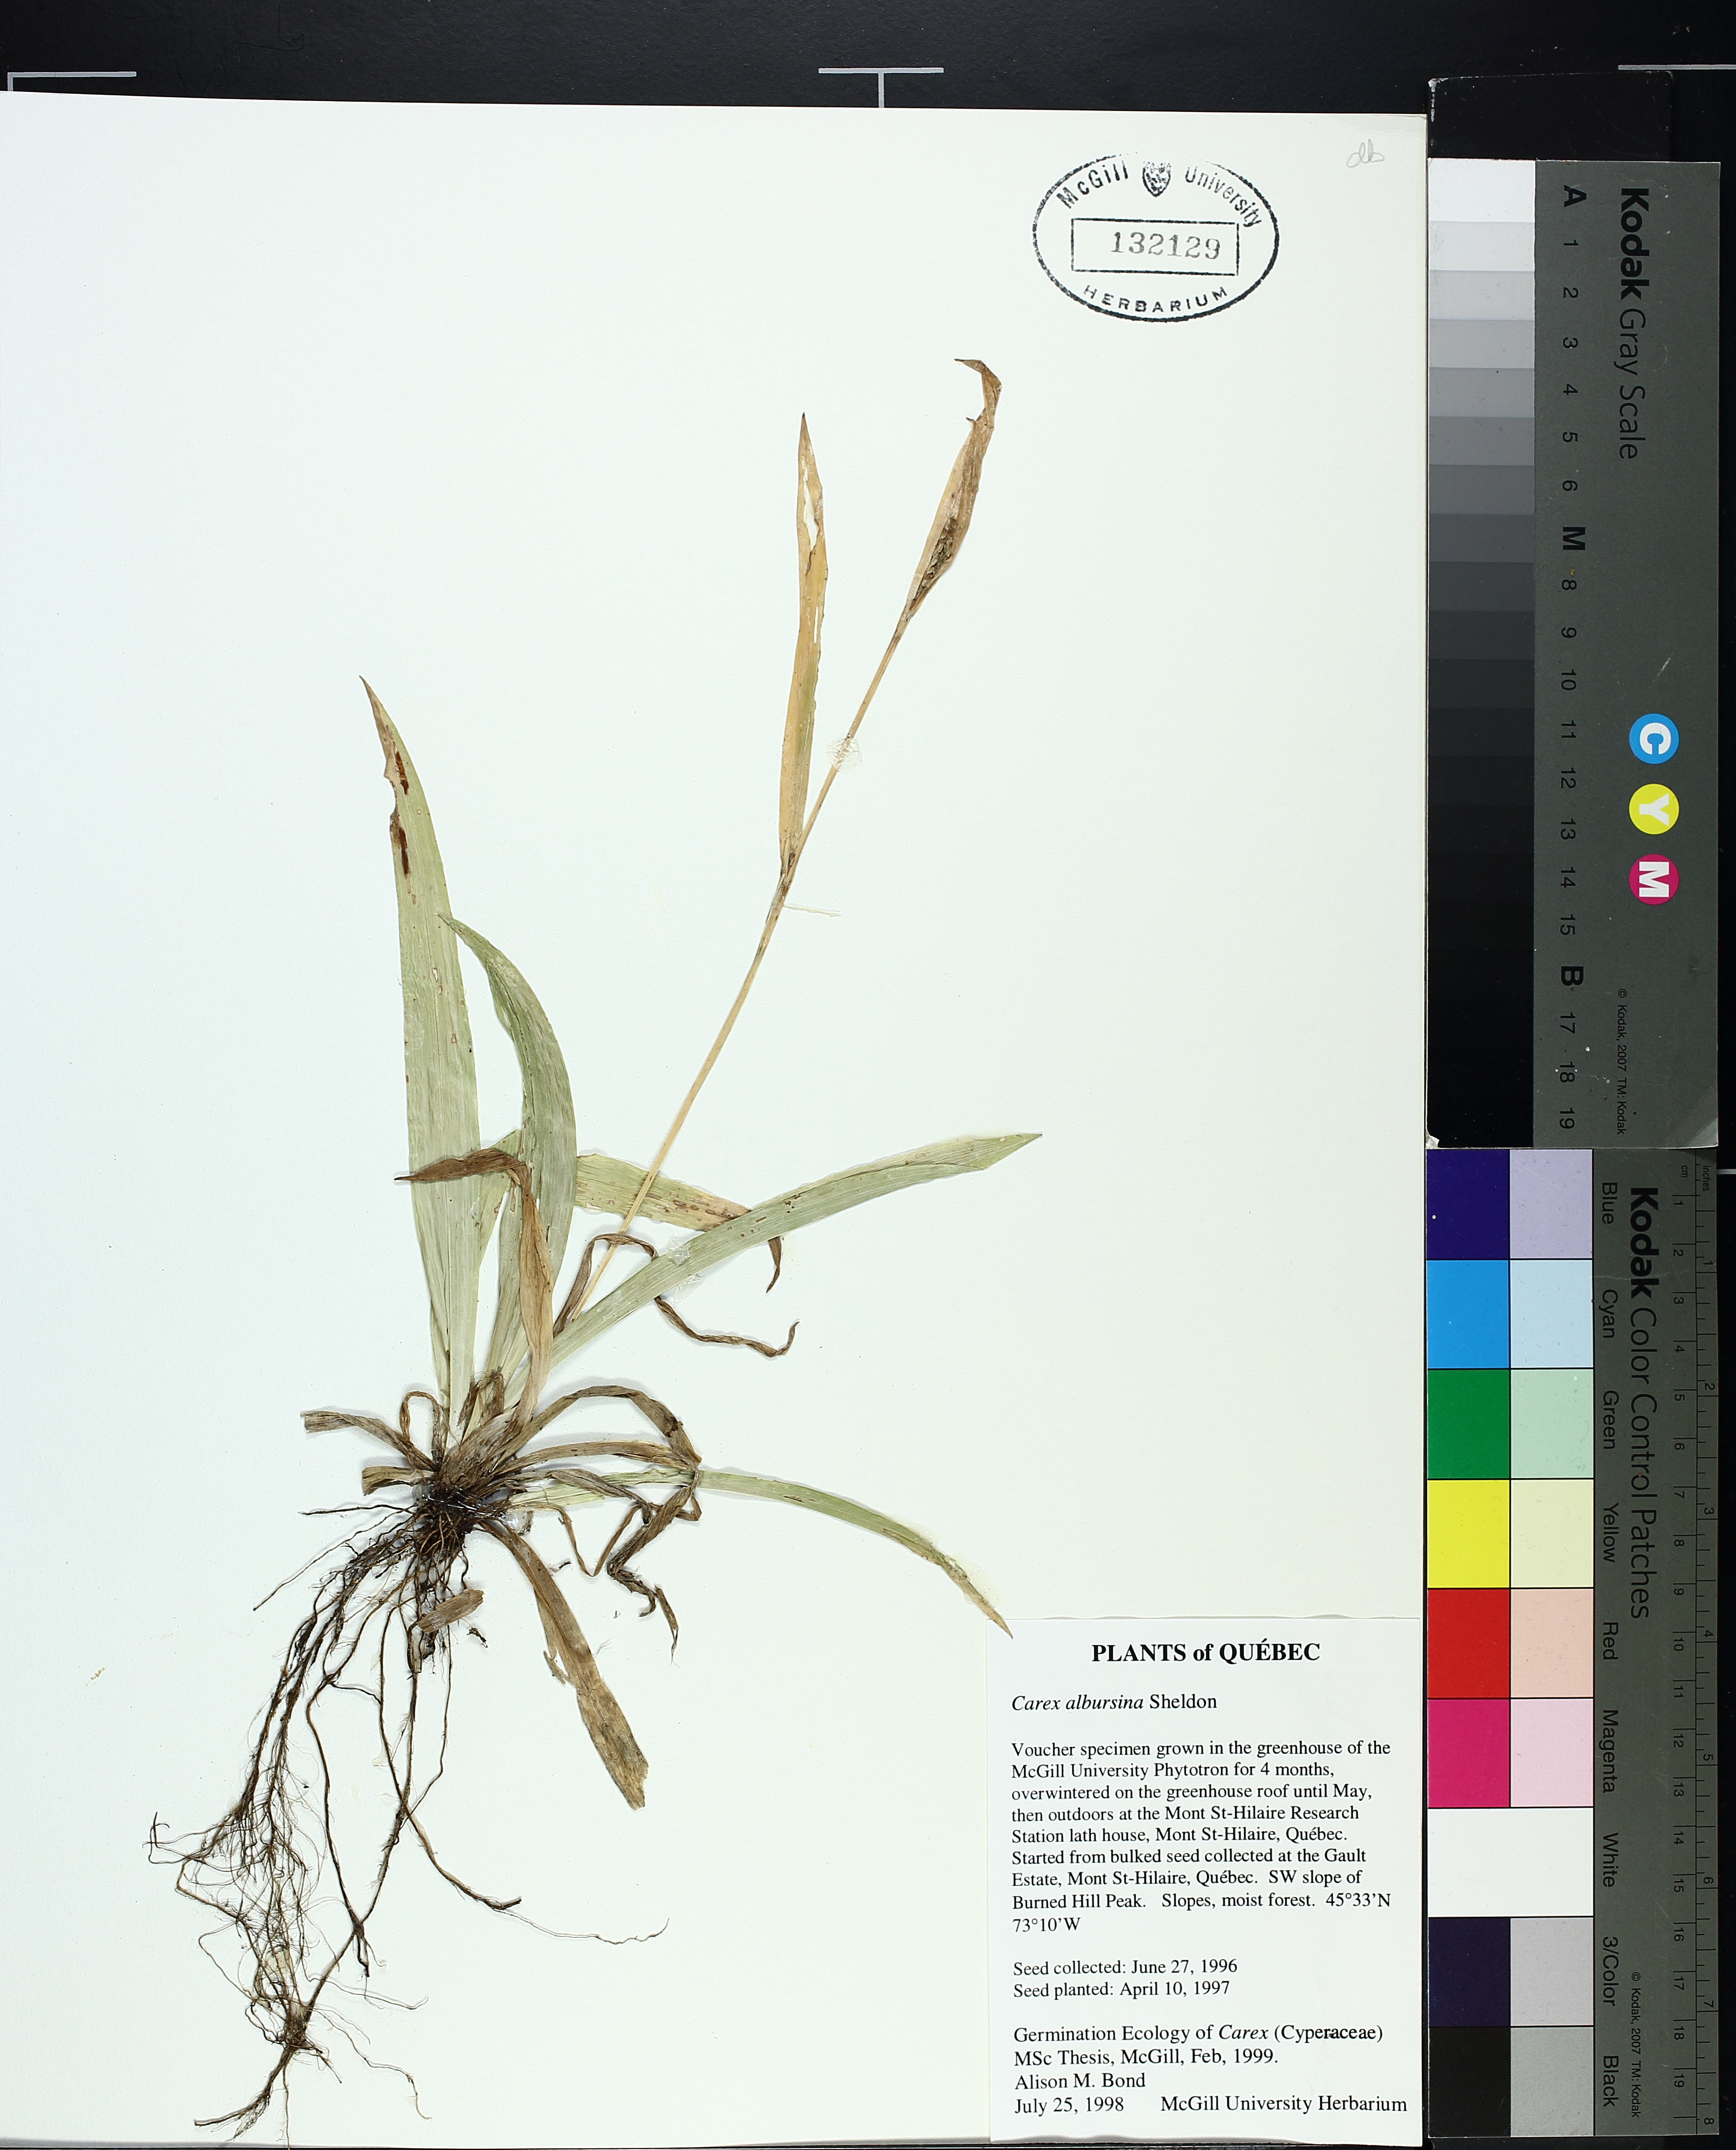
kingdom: Plantae
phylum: Tracheophyta
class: Liliopsida
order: Poales
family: Cyperaceae
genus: Carex
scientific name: Carex albursina
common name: Blunt-scale wood sedge
